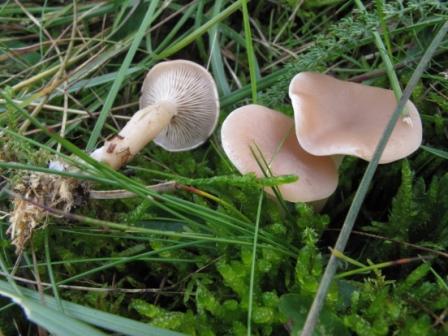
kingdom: Fungi
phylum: Basidiomycota
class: Agaricomycetes
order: Agaricales
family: Tricholomataceae
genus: Clitocybe
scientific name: Clitocybe diatreta
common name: kødfarvet tragthat
